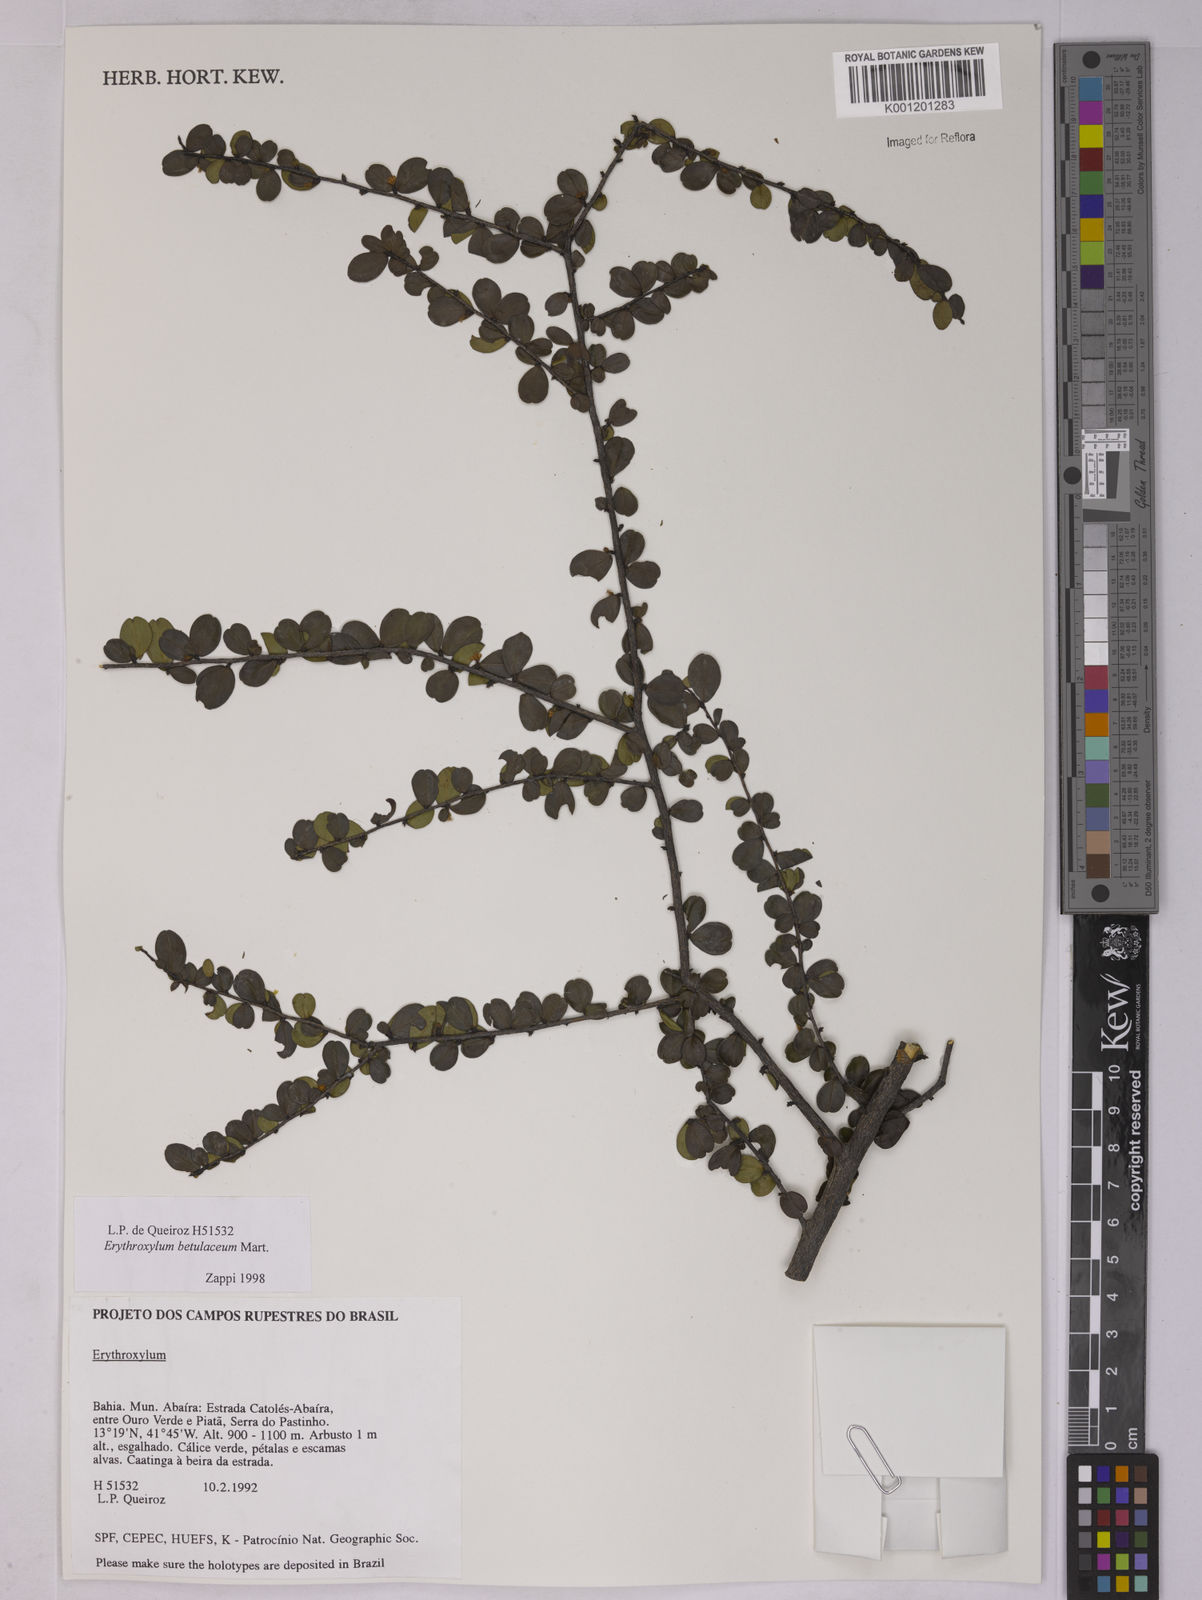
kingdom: Plantae
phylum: Tracheophyta
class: Magnoliopsida
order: Malpighiales
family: Erythroxylaceae
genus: Erythroxylum
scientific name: Erythroxylum betulaceum
